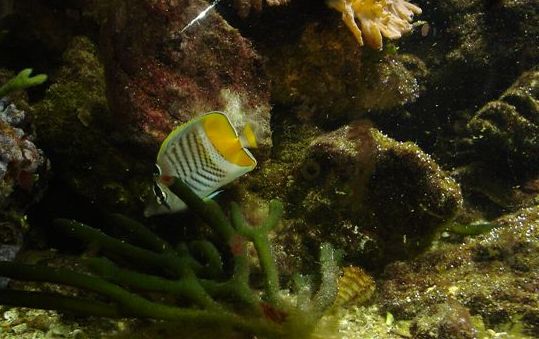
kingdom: Animalia
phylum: Chordata
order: Perciformes
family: Chaetodontidae
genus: Chaetodon
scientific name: Chaetodon madagaskariensis
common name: Madagascar butterflyfish
